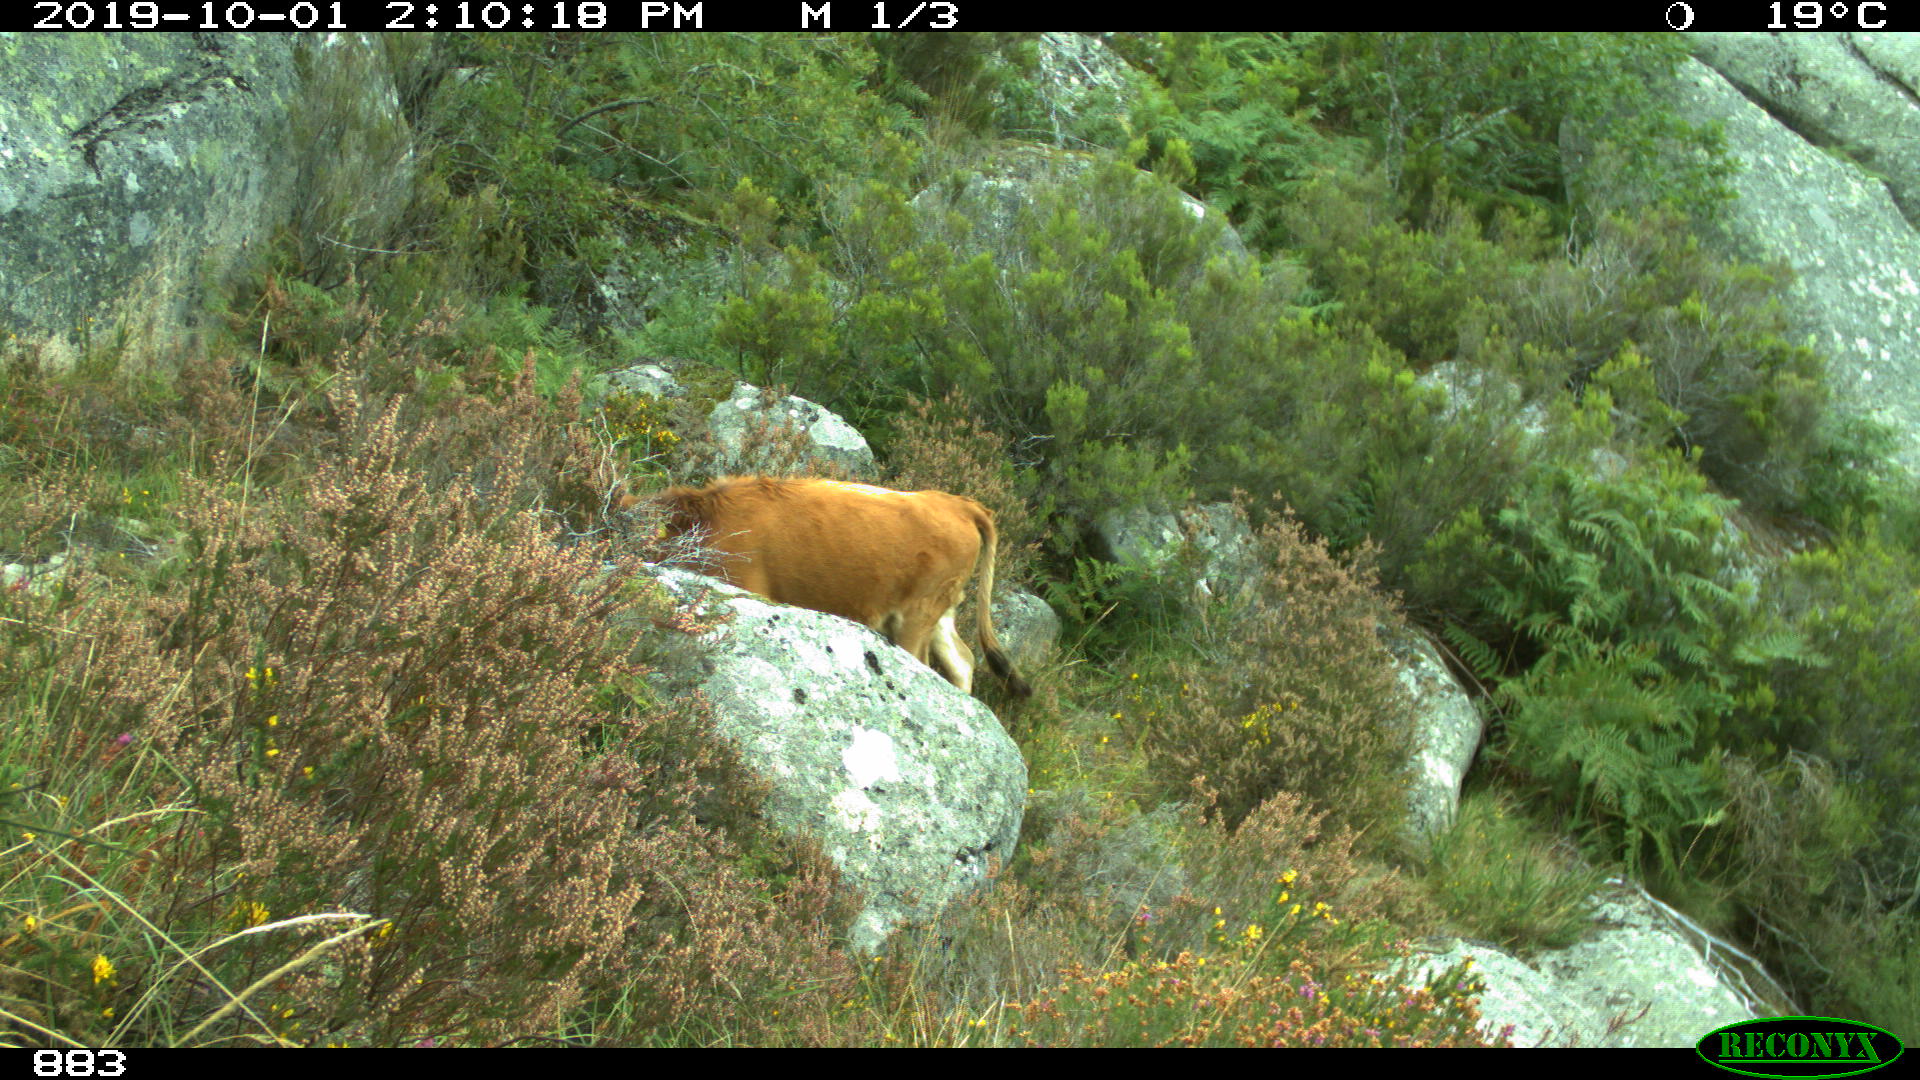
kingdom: Animalia
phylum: Chordata
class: Mammalia
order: Artiodactyla
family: Bovidae
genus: Bos
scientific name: Bos taurus
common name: Domesticated cattle
